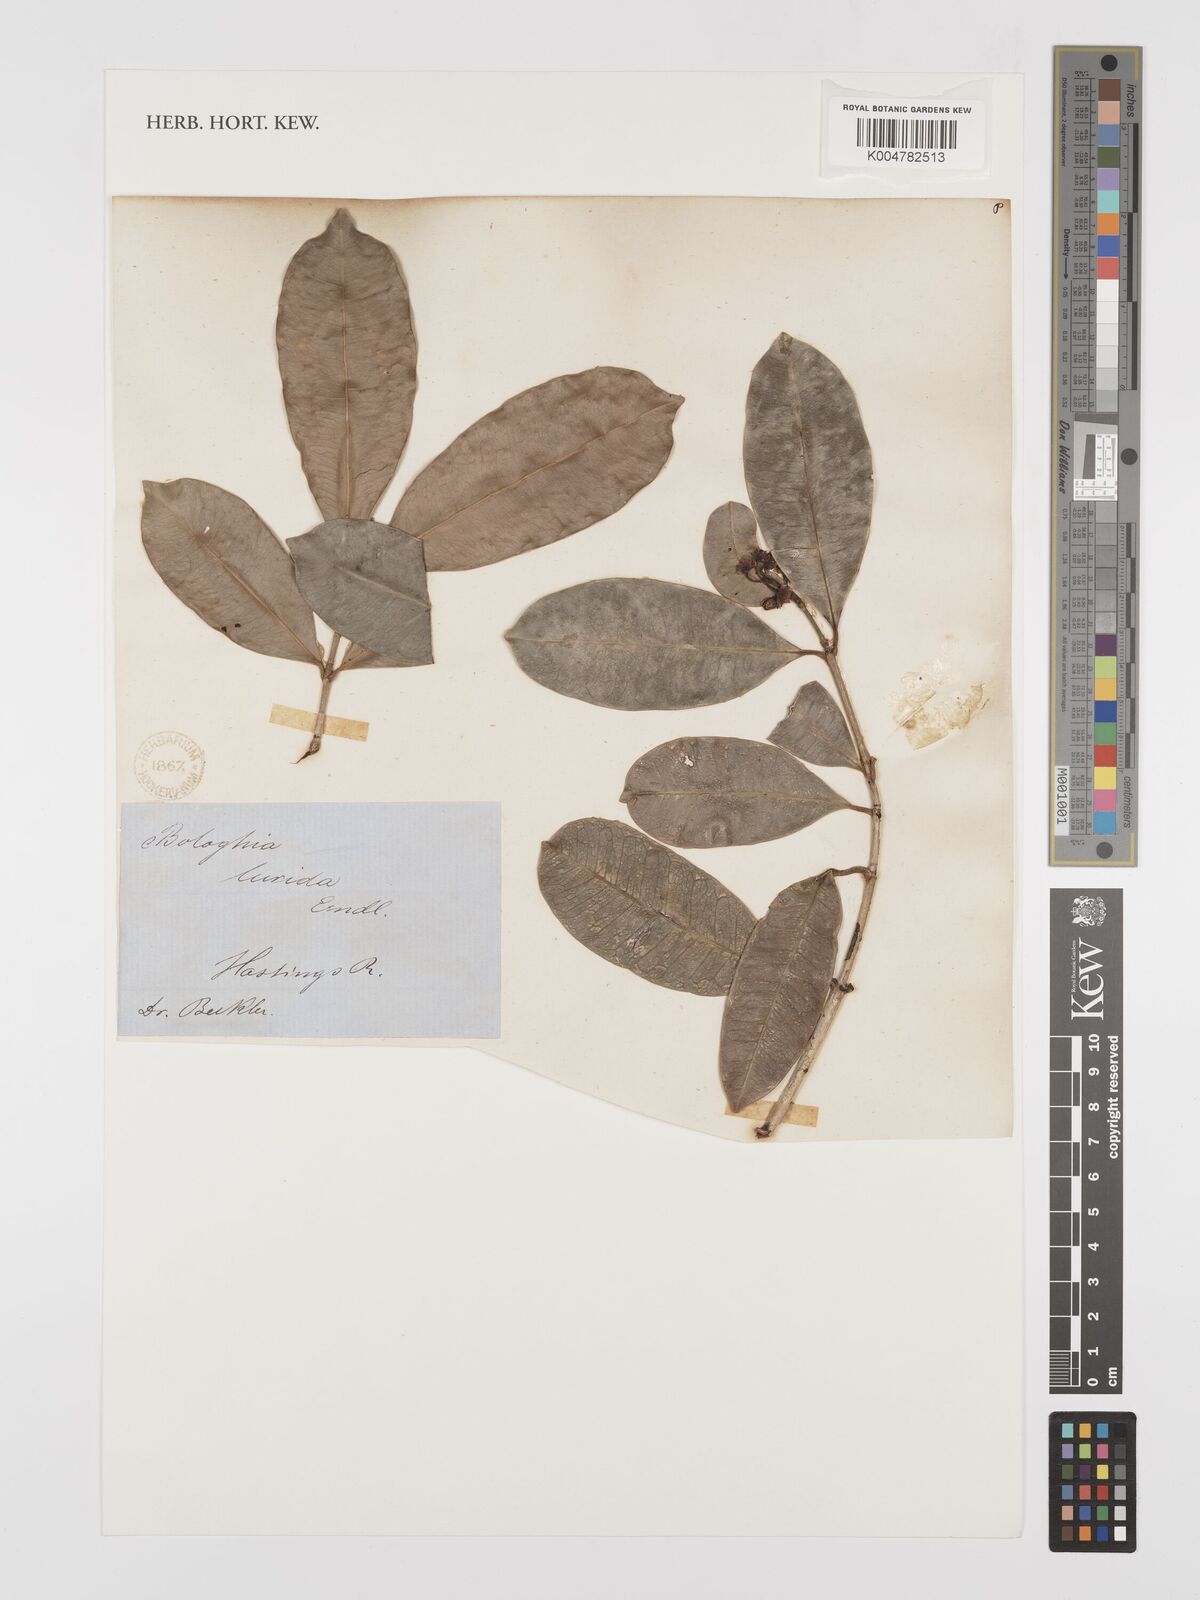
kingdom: Plantae
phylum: Tracheophyta
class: Magnoliopsida
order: Malpighiales
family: Euphorbiaceae
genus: Baloghia
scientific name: Baloghia inophylla
